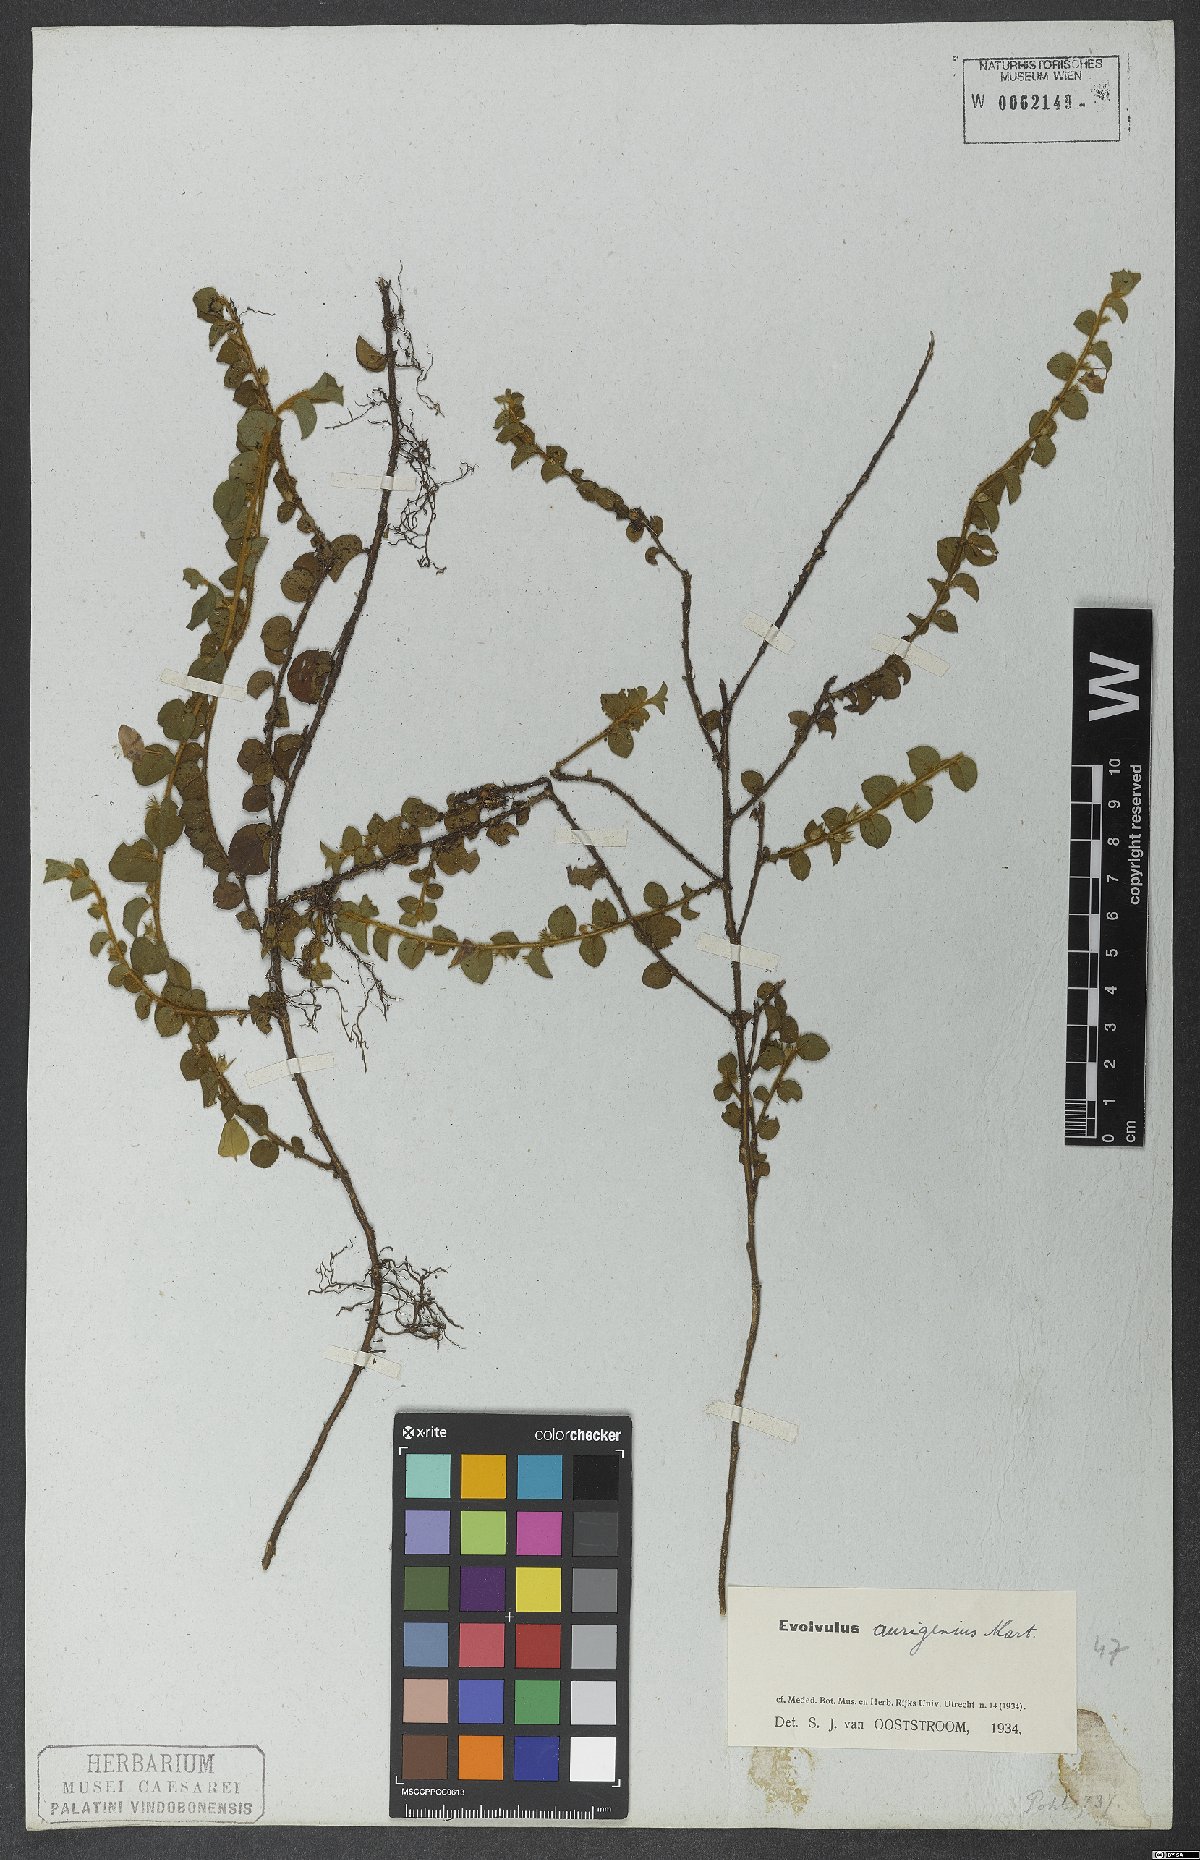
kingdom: Plantae
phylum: Tracheophyta
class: Magnoliopsida
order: Solanales
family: Convolvulaceae
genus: Evolvulus
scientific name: Evolvulus aurigenius
